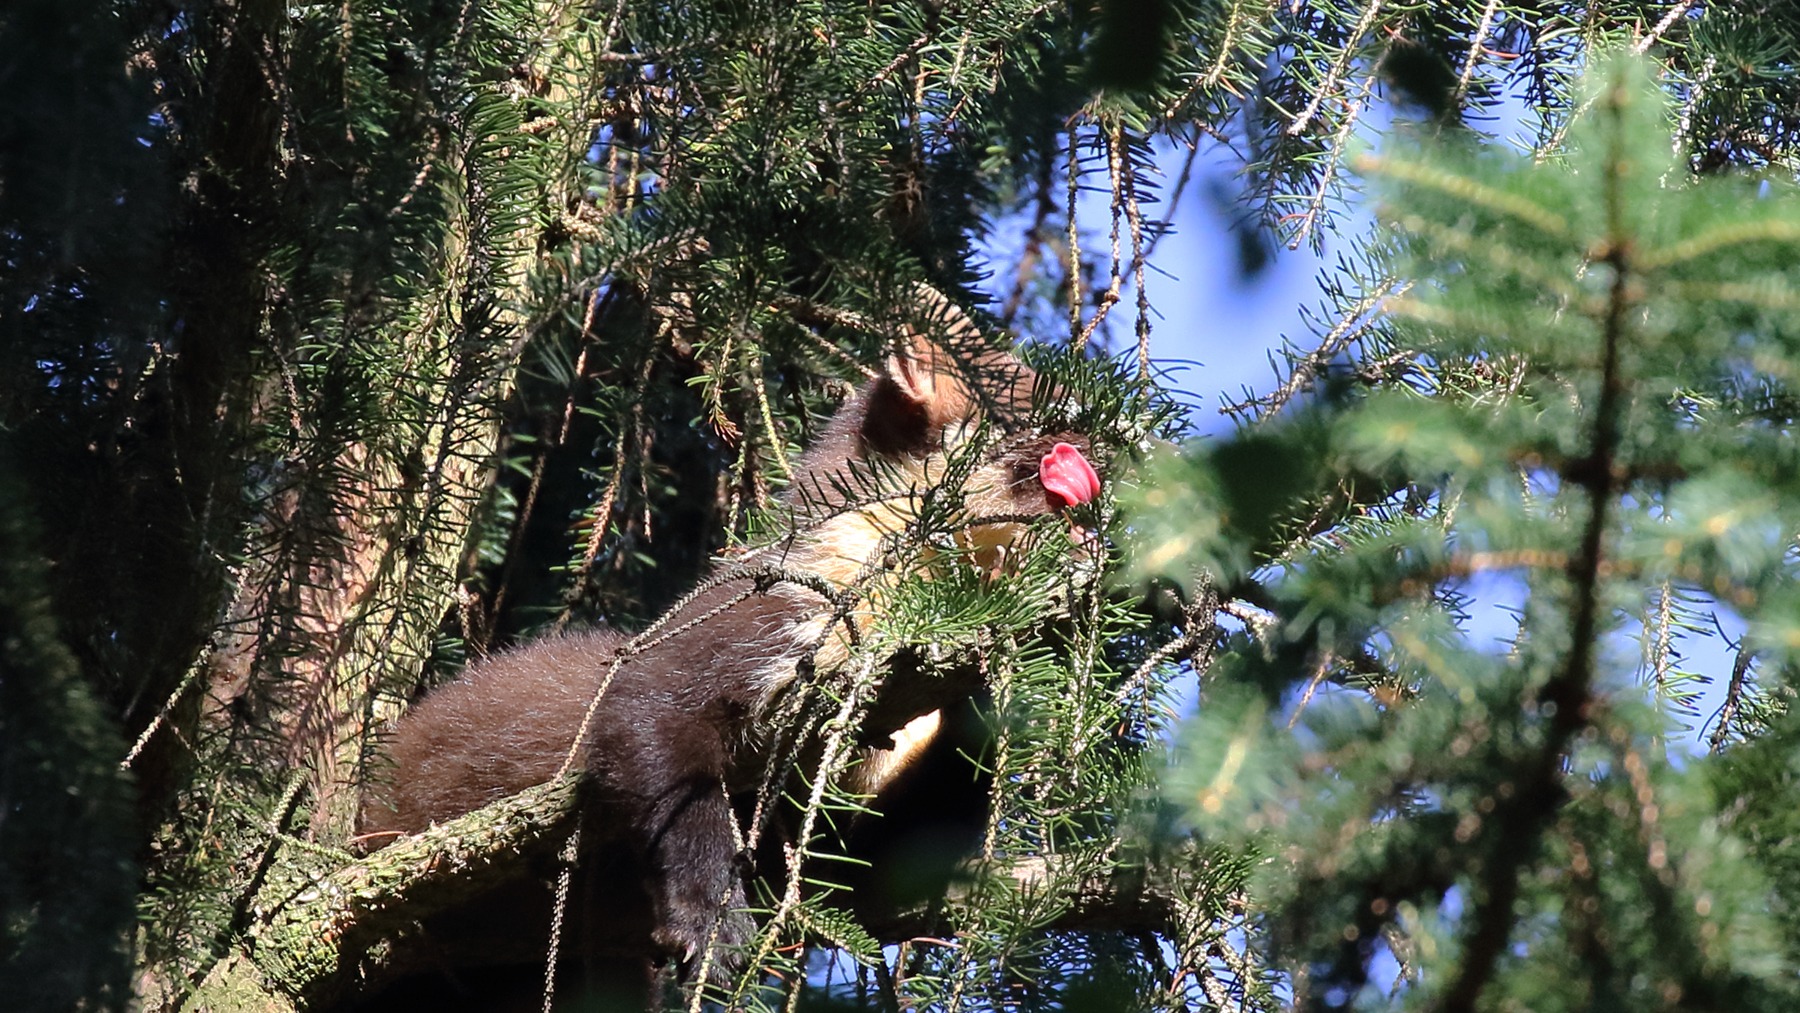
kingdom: Animalia
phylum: Chordata
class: Mammalia
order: Carnivora
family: Mustelidae
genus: Martes
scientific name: Martes martes
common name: Skovmår
